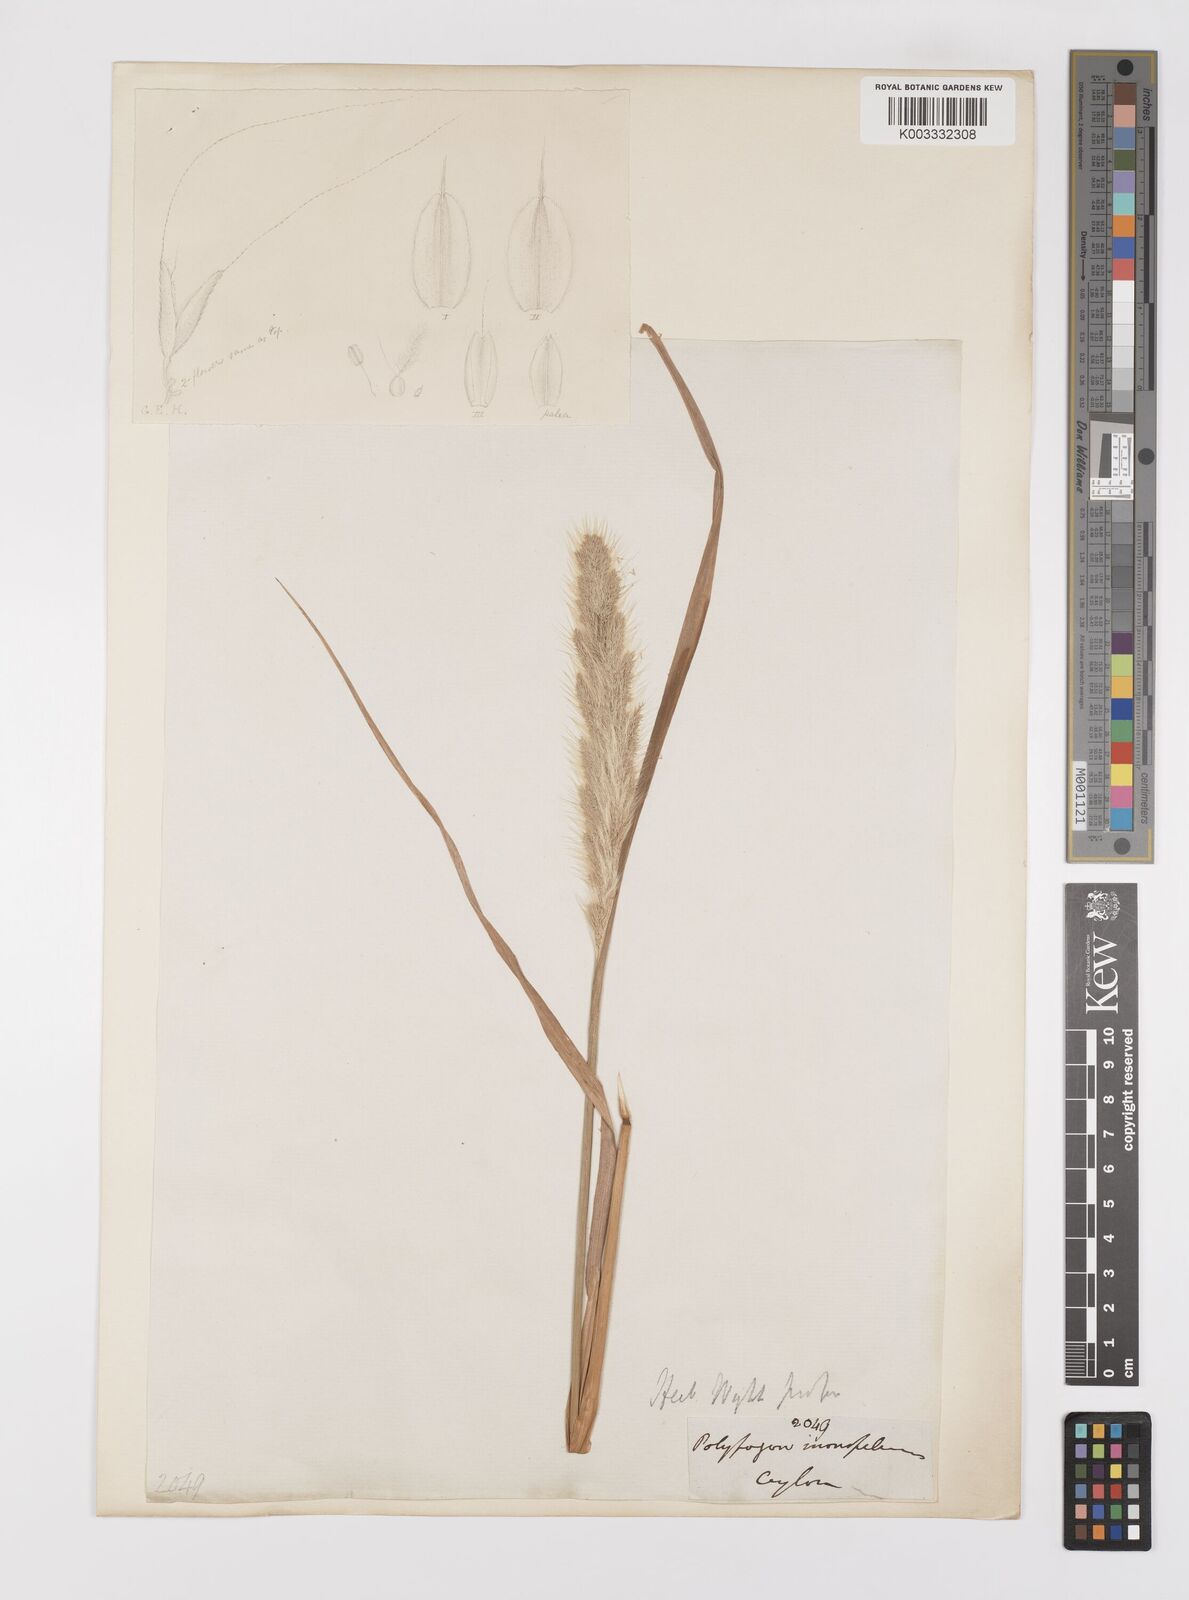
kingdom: Plantae
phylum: Tracheophyta
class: Liliopsida
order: Poales
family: Poaceae
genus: Polypogon
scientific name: Polypogon monspeliensis
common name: Annual rabbitsfoot grass
